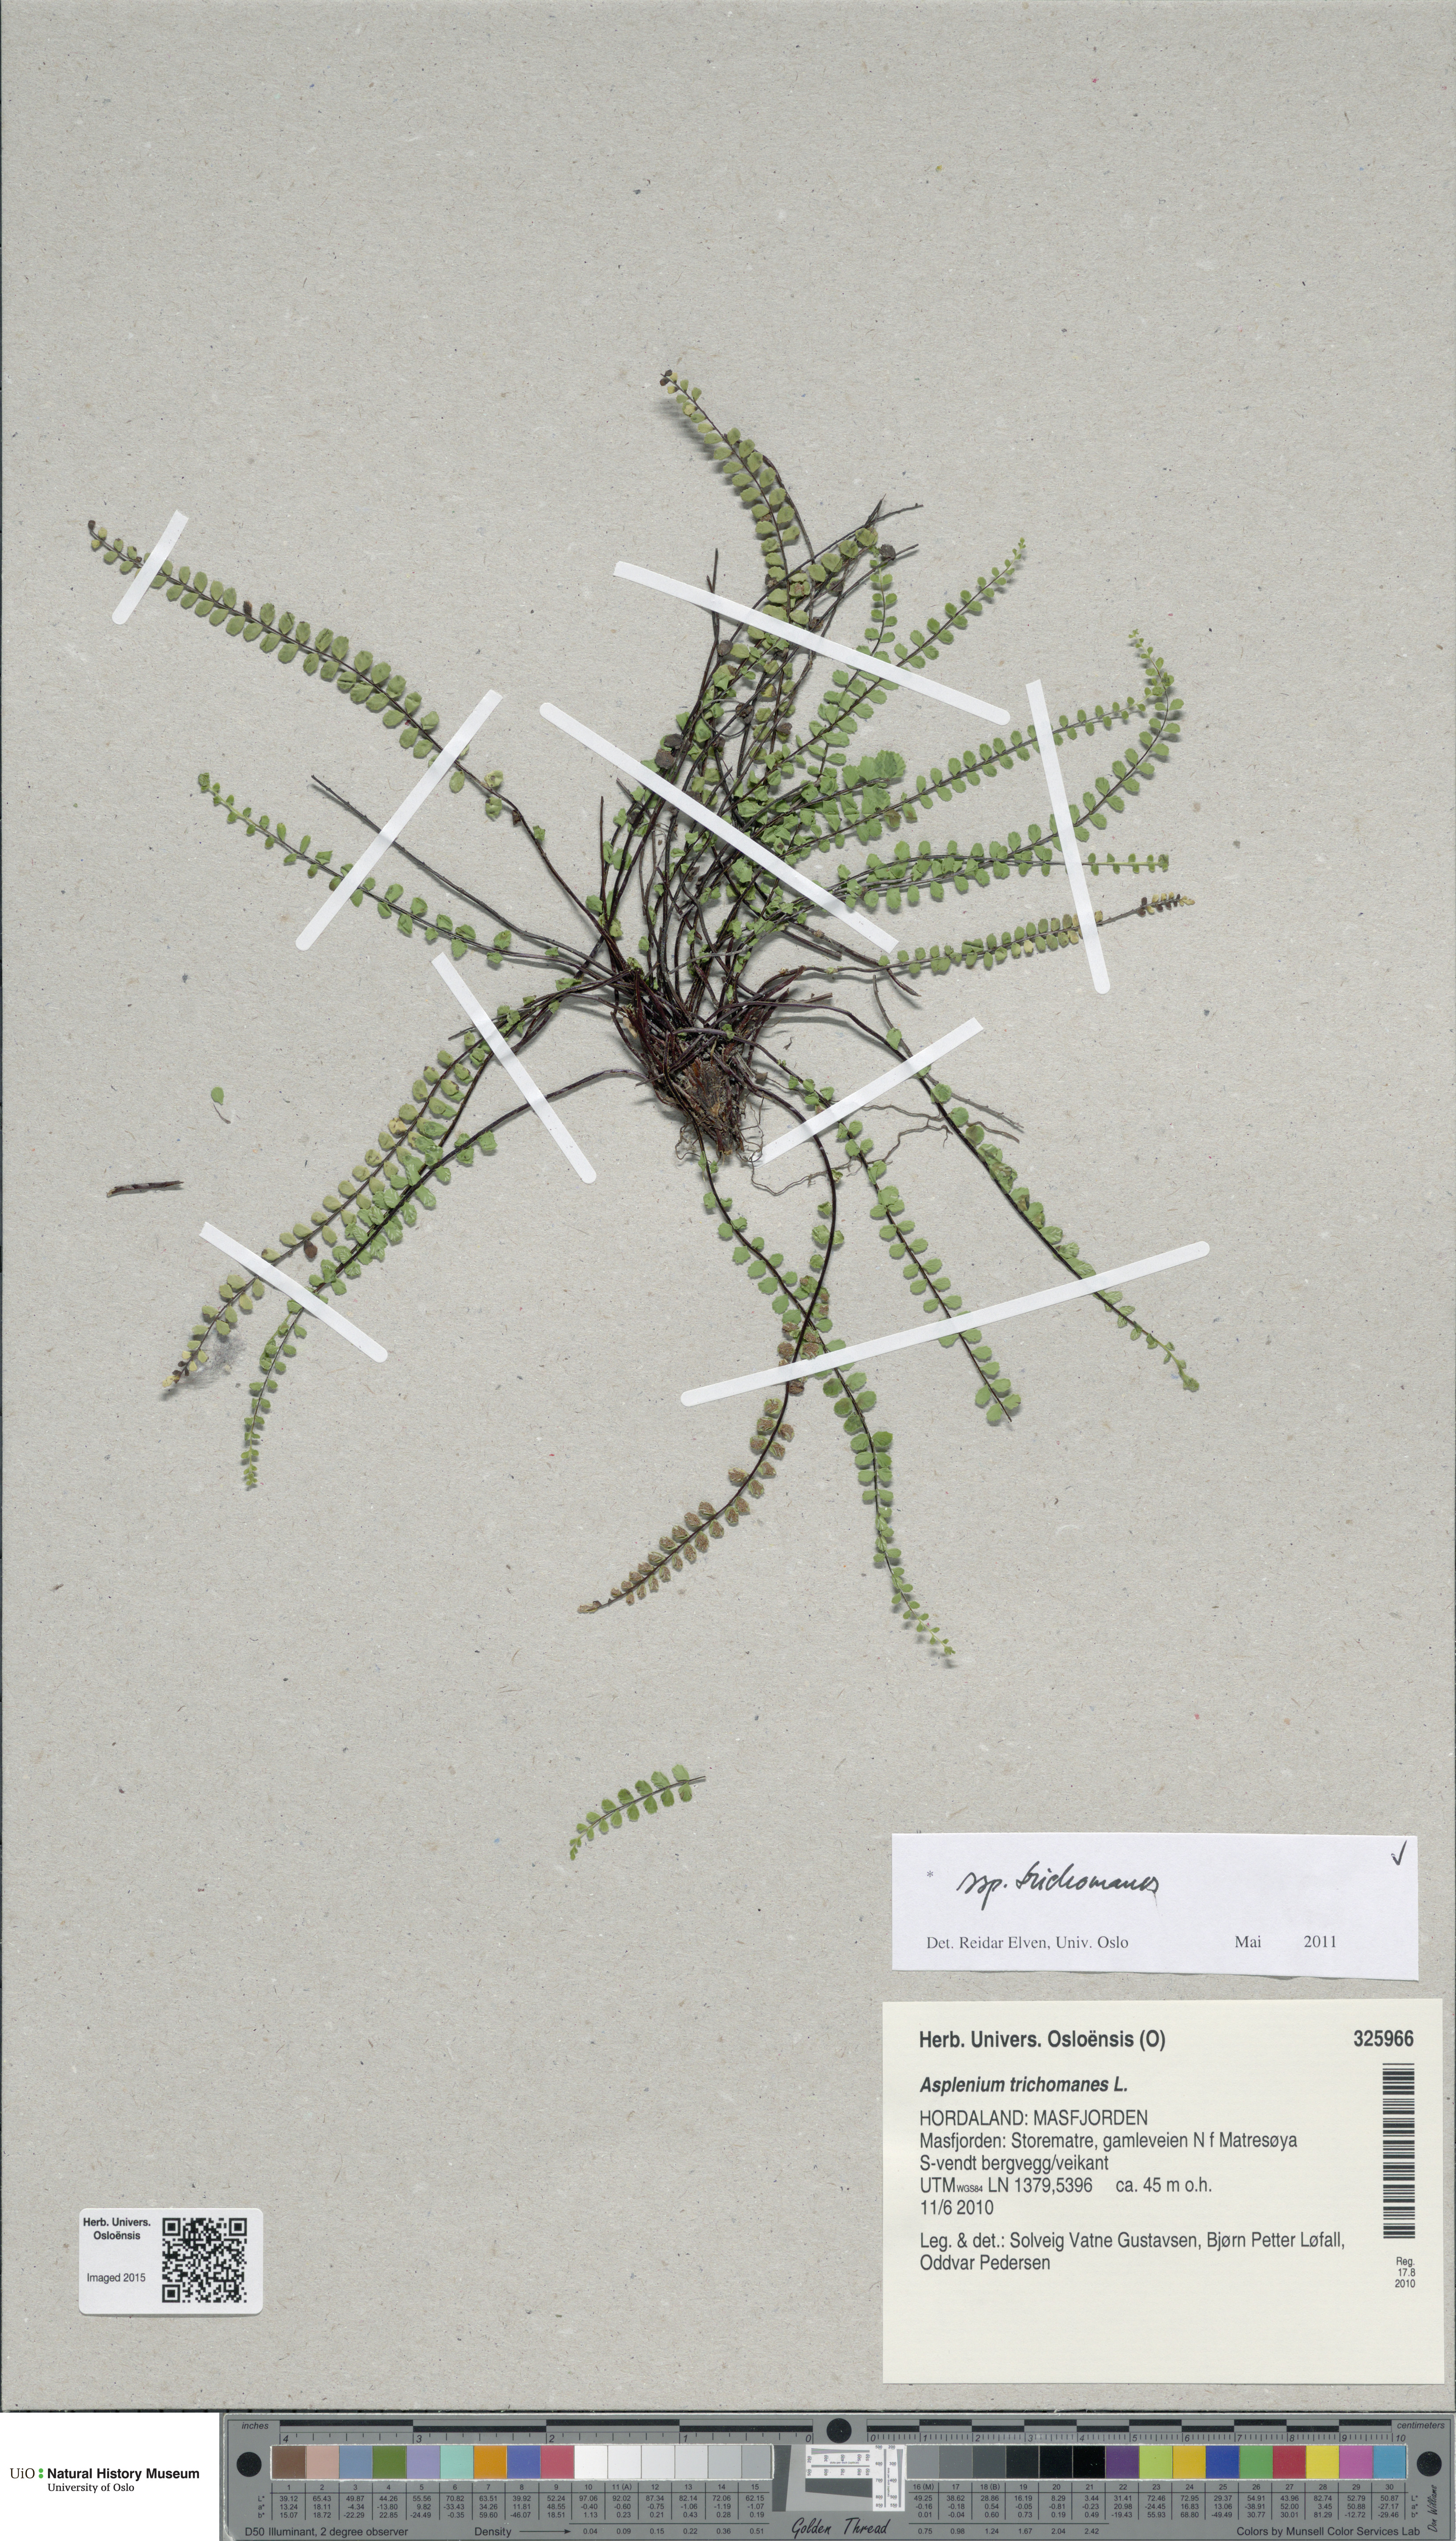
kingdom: Plantae
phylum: Tracheophyta
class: Polypodiopsida
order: Polypodiales
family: Aspleniaceae
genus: Asplenium
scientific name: Asplenium trichomanes
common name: Maidenhair spleenwort
